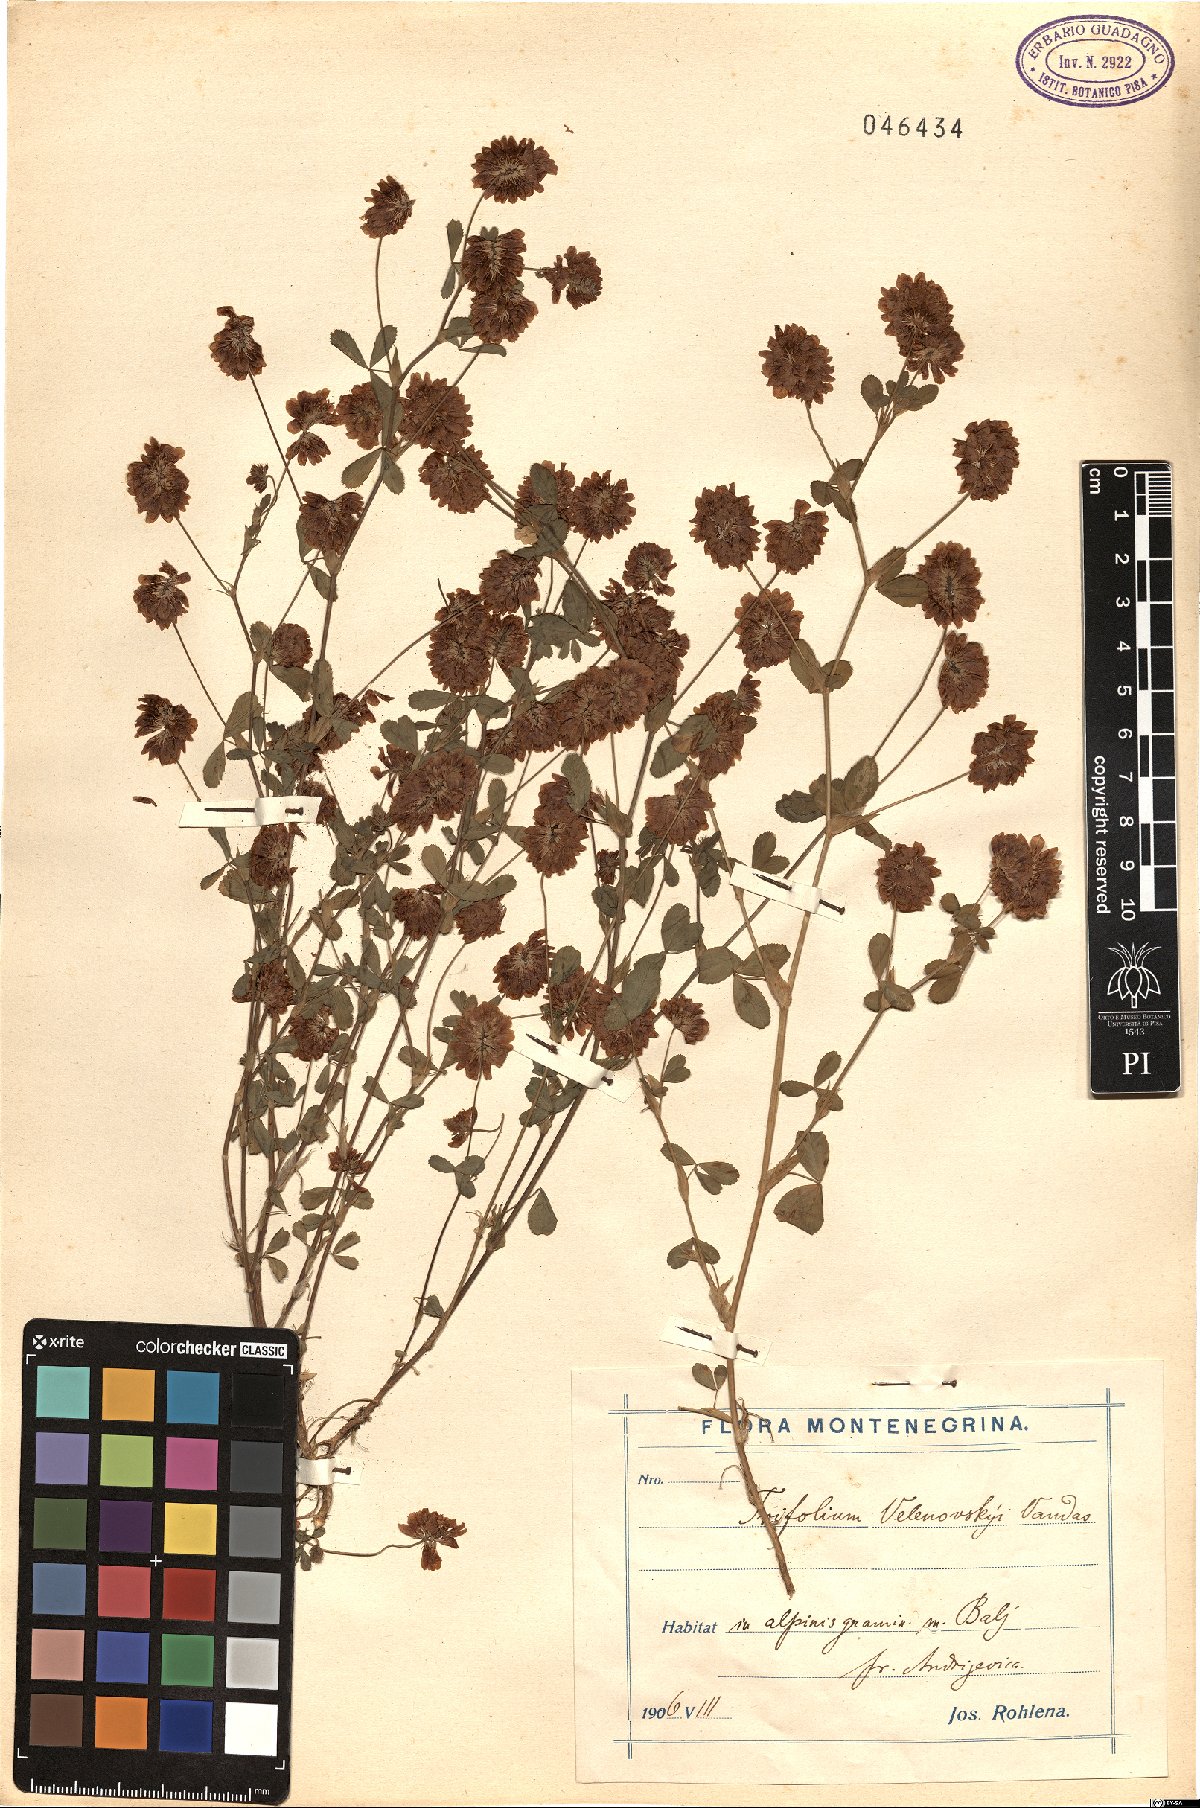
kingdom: Plantae
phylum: Tracheophyta
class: Magnoliopsida
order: Fabales
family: Fabaceae
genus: Trifolium
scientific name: Trifolium velenovskyi
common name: Velenovsky's clover
